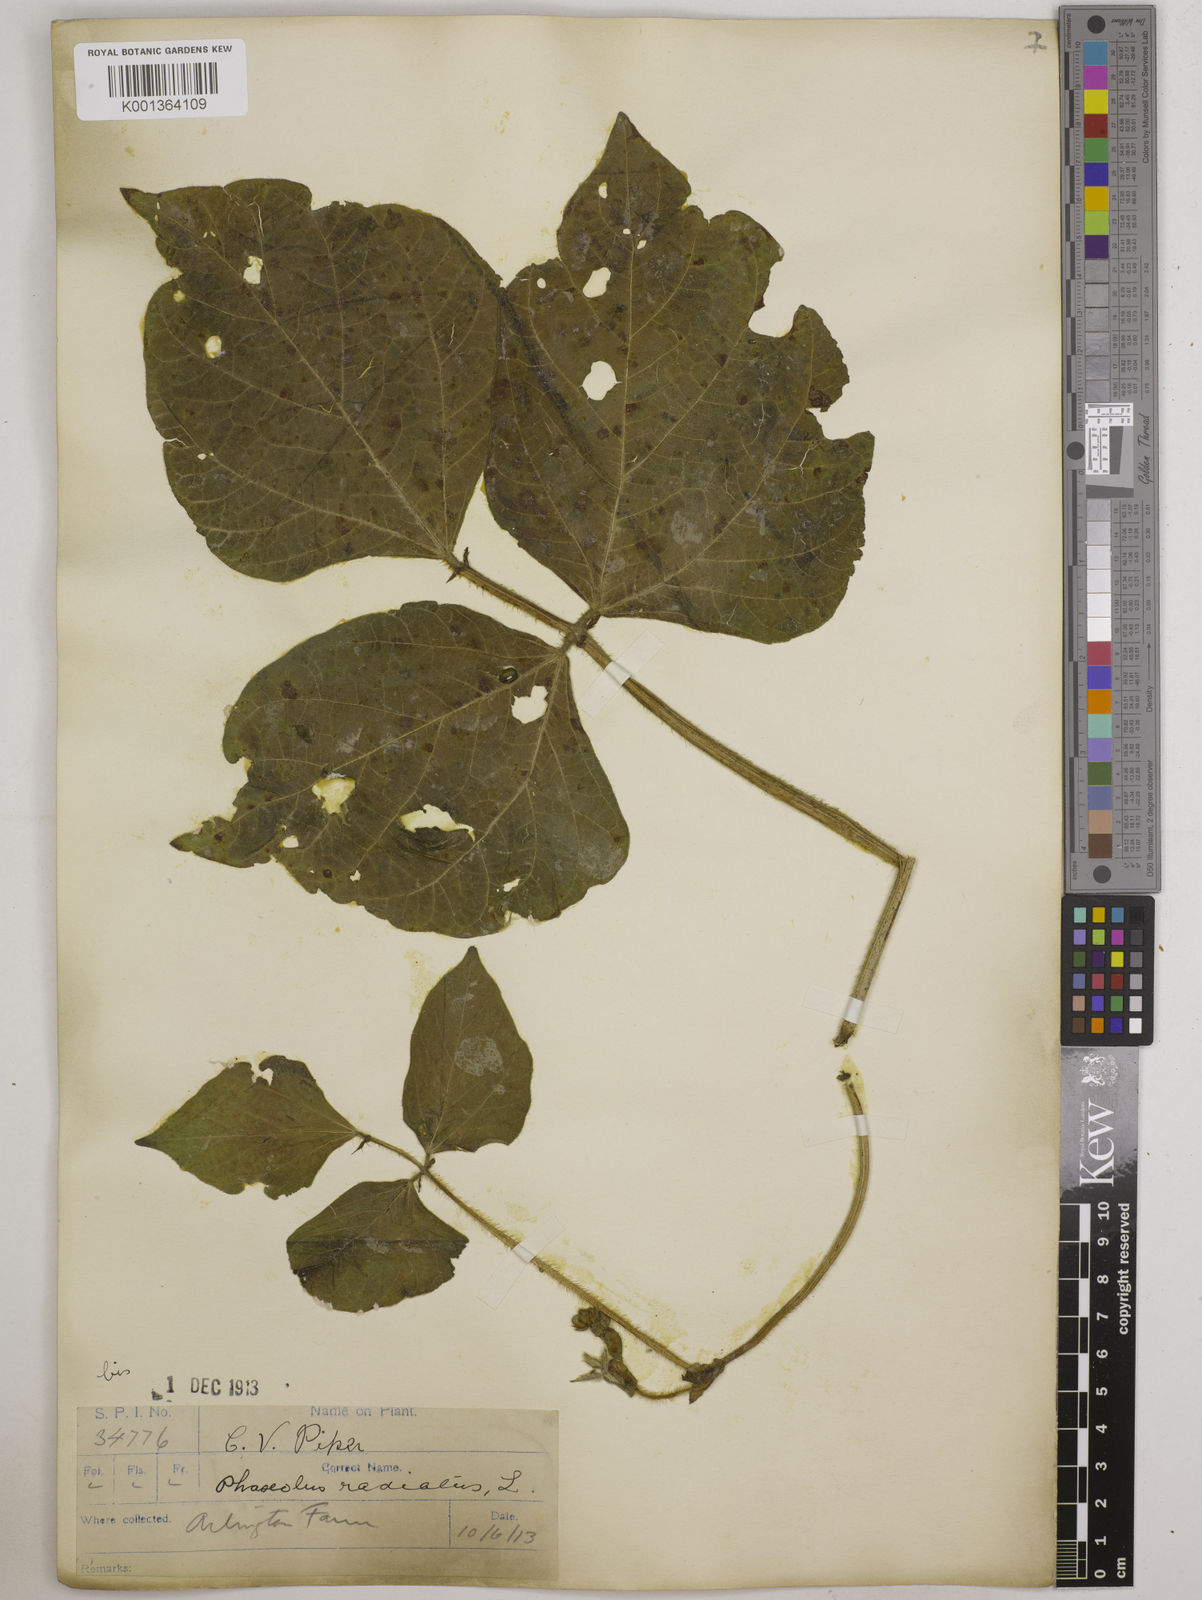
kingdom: Plantae
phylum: Tracheophyta
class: Magnoliopsida
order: Fabales
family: Fabaceae
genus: Vigna
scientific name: Vigna radiata
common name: Mung-bean
